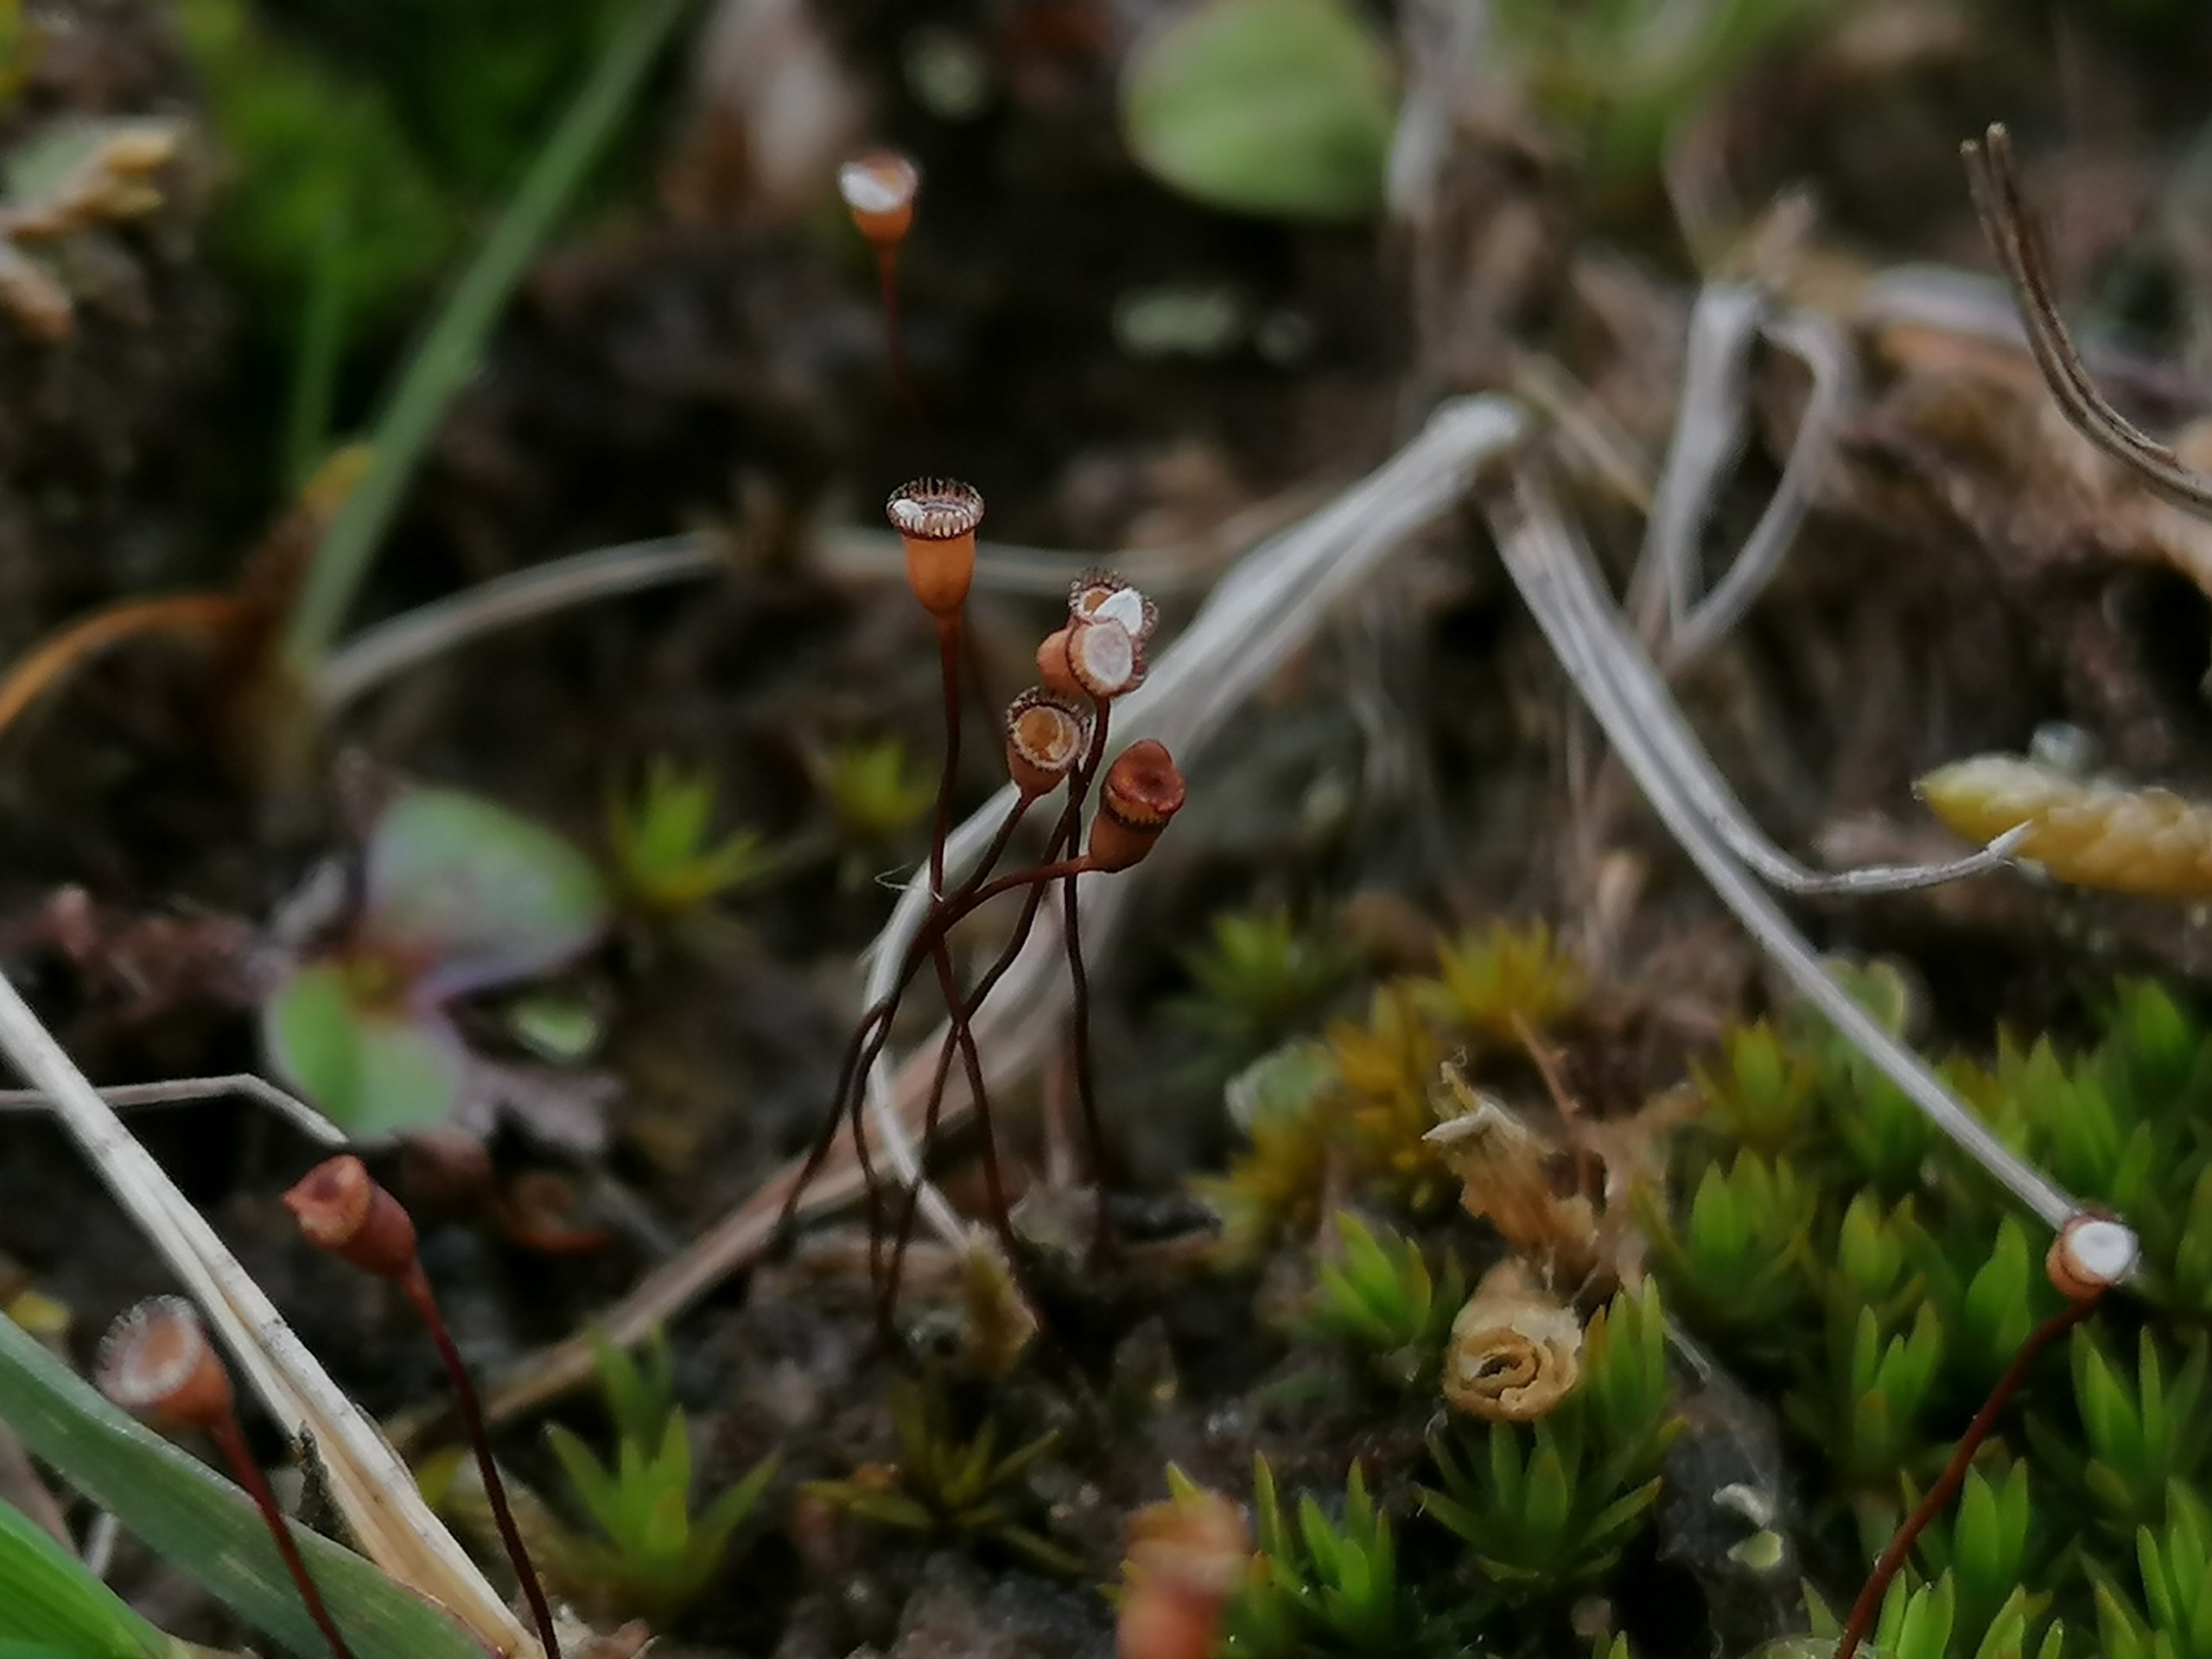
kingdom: Plantae
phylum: Bryophyta
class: Polytrichopsida
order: Polytrichales
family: Polytrichaceae
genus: Pogonatum
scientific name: Pogonatum nanum
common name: Dværg-urnekapsel
